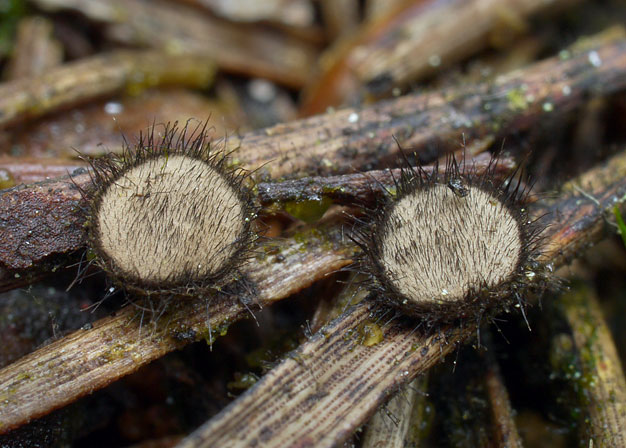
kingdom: Fungi
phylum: Ascomycota
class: Pezizomycetes
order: Pezizales
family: Chorioactidaceae
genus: Desmazierella
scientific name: Desmazierella acicola
